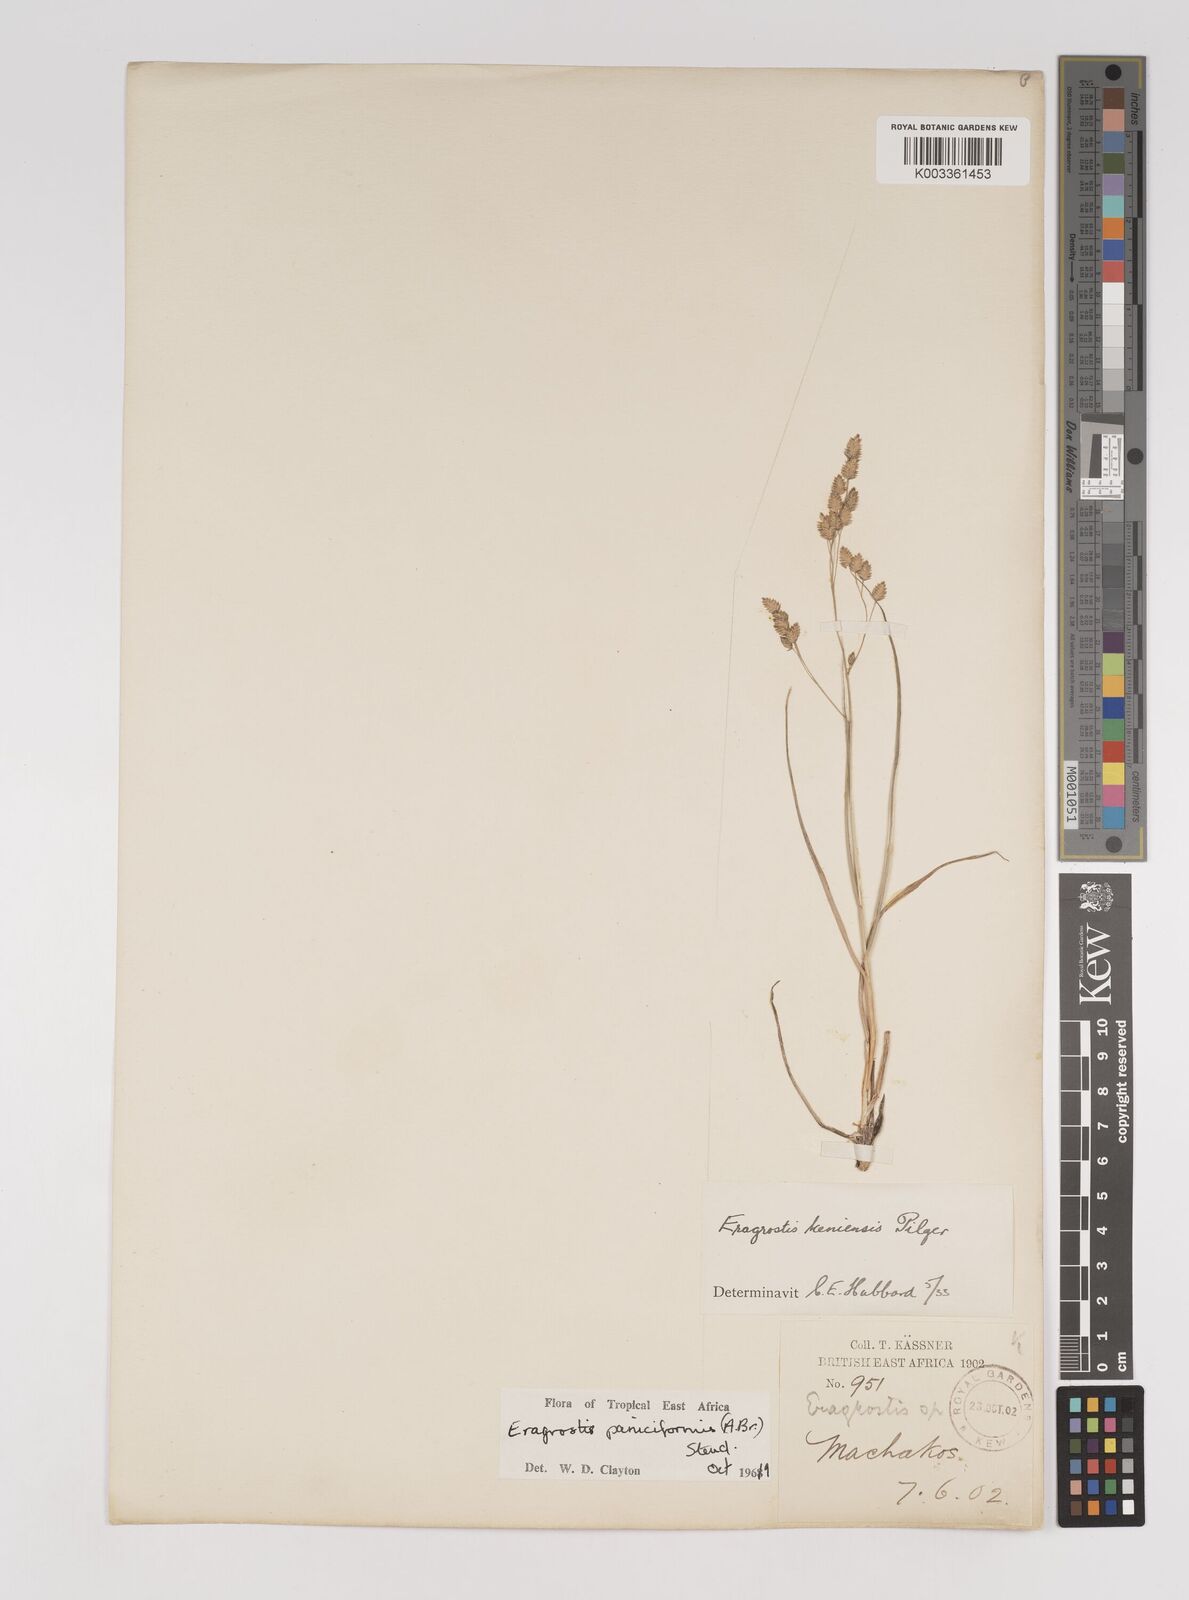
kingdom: Plantae
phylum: Tracheophyta
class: Liliopsida
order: Poales
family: Poaceae
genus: Eragrostis
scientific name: Eragrostis paniciformis
